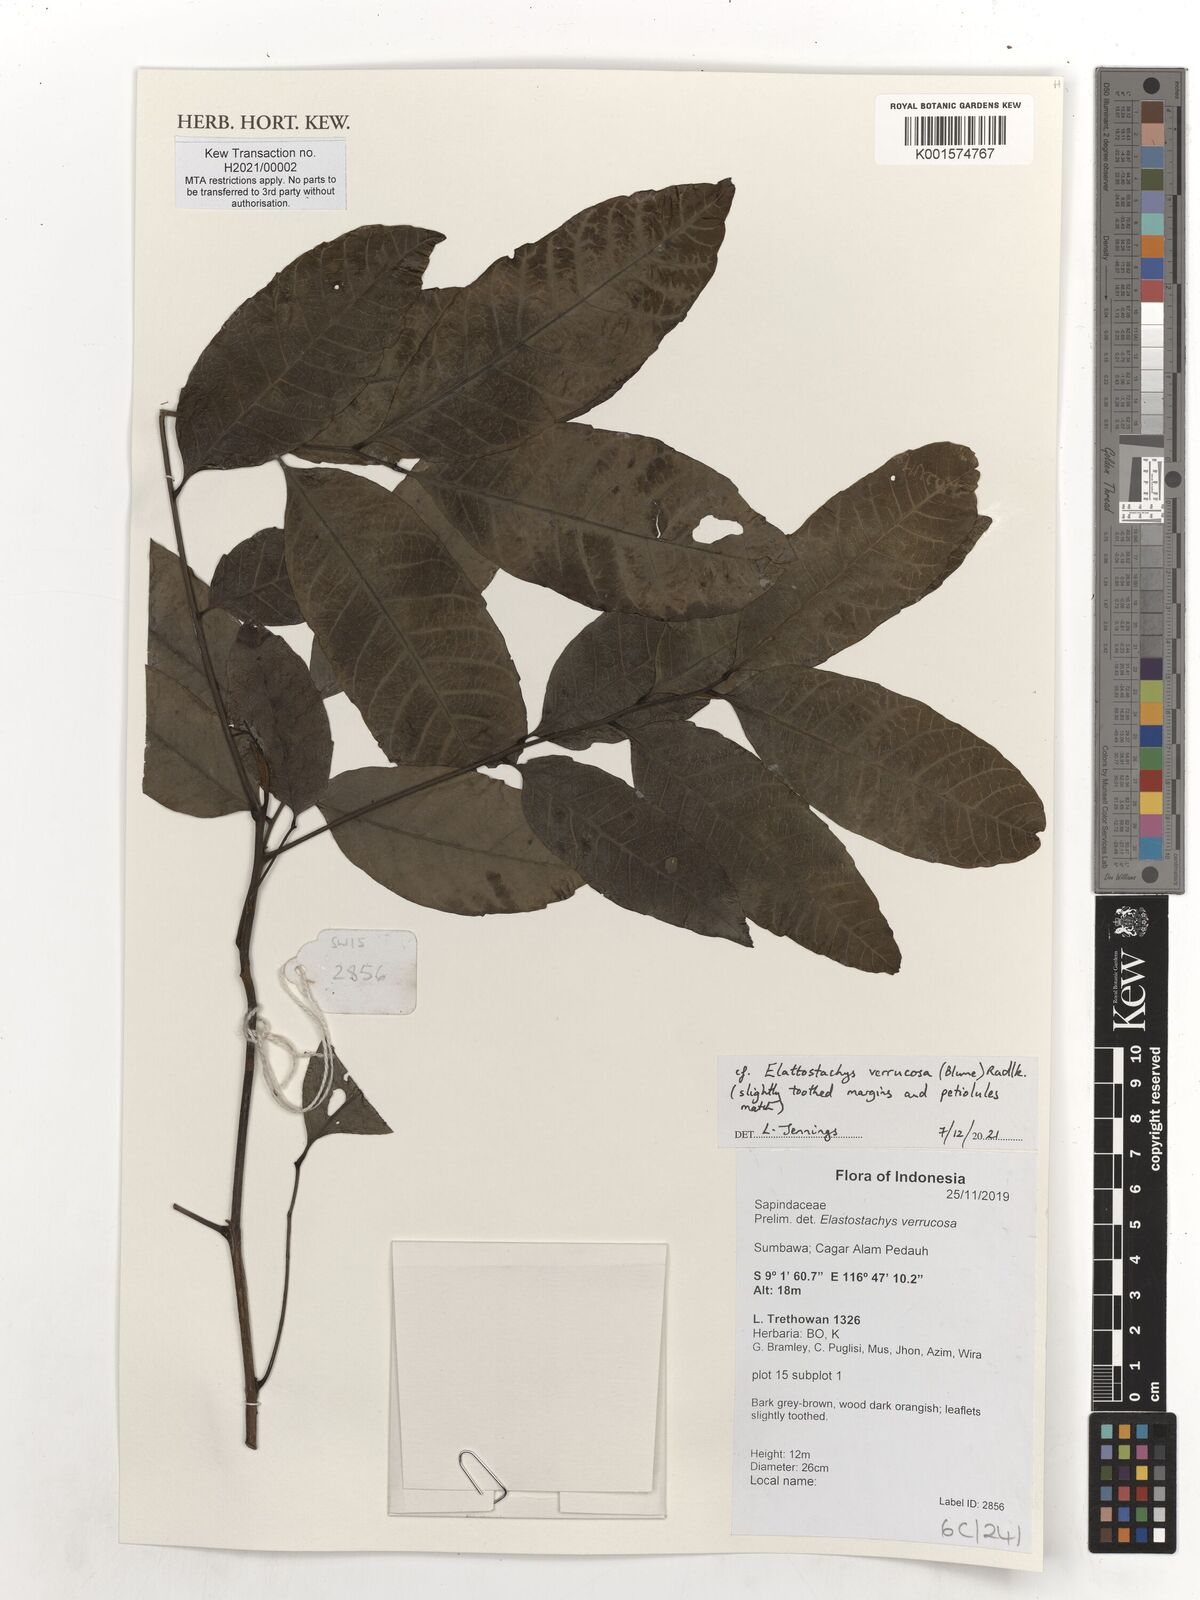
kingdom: Plantae
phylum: Tracheophyta
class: Magnoliopsida
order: Sapindales
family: Sapindaceae
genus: Elattostachys
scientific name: Elattostachys verrucosa
